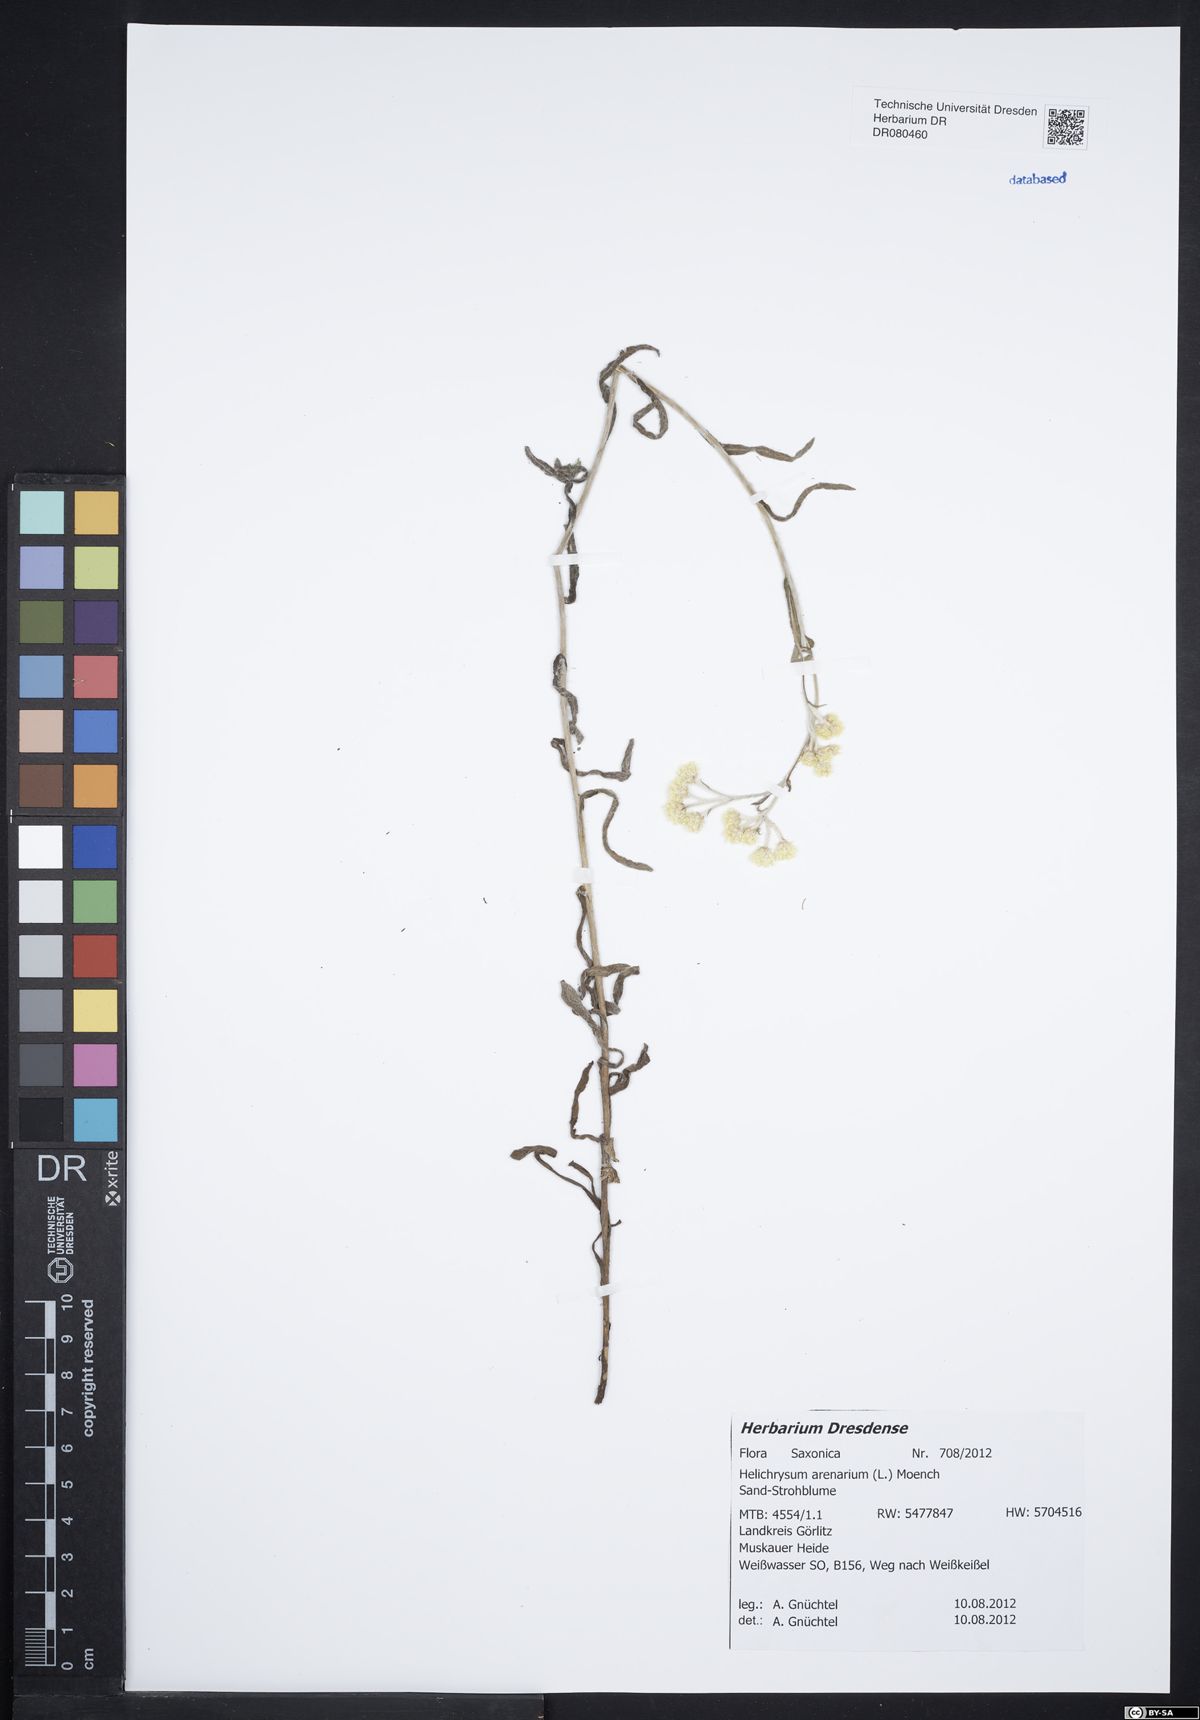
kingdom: Plantae
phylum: Tracheophyta
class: Magnoliopsida
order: Asterales
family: Asteraceae
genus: Helichrysum
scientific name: Helichrysum arenarium
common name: Strawflower
